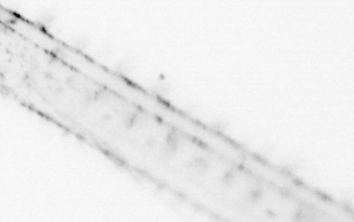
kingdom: Animalia
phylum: Chaetognatha
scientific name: Chaetognatha
